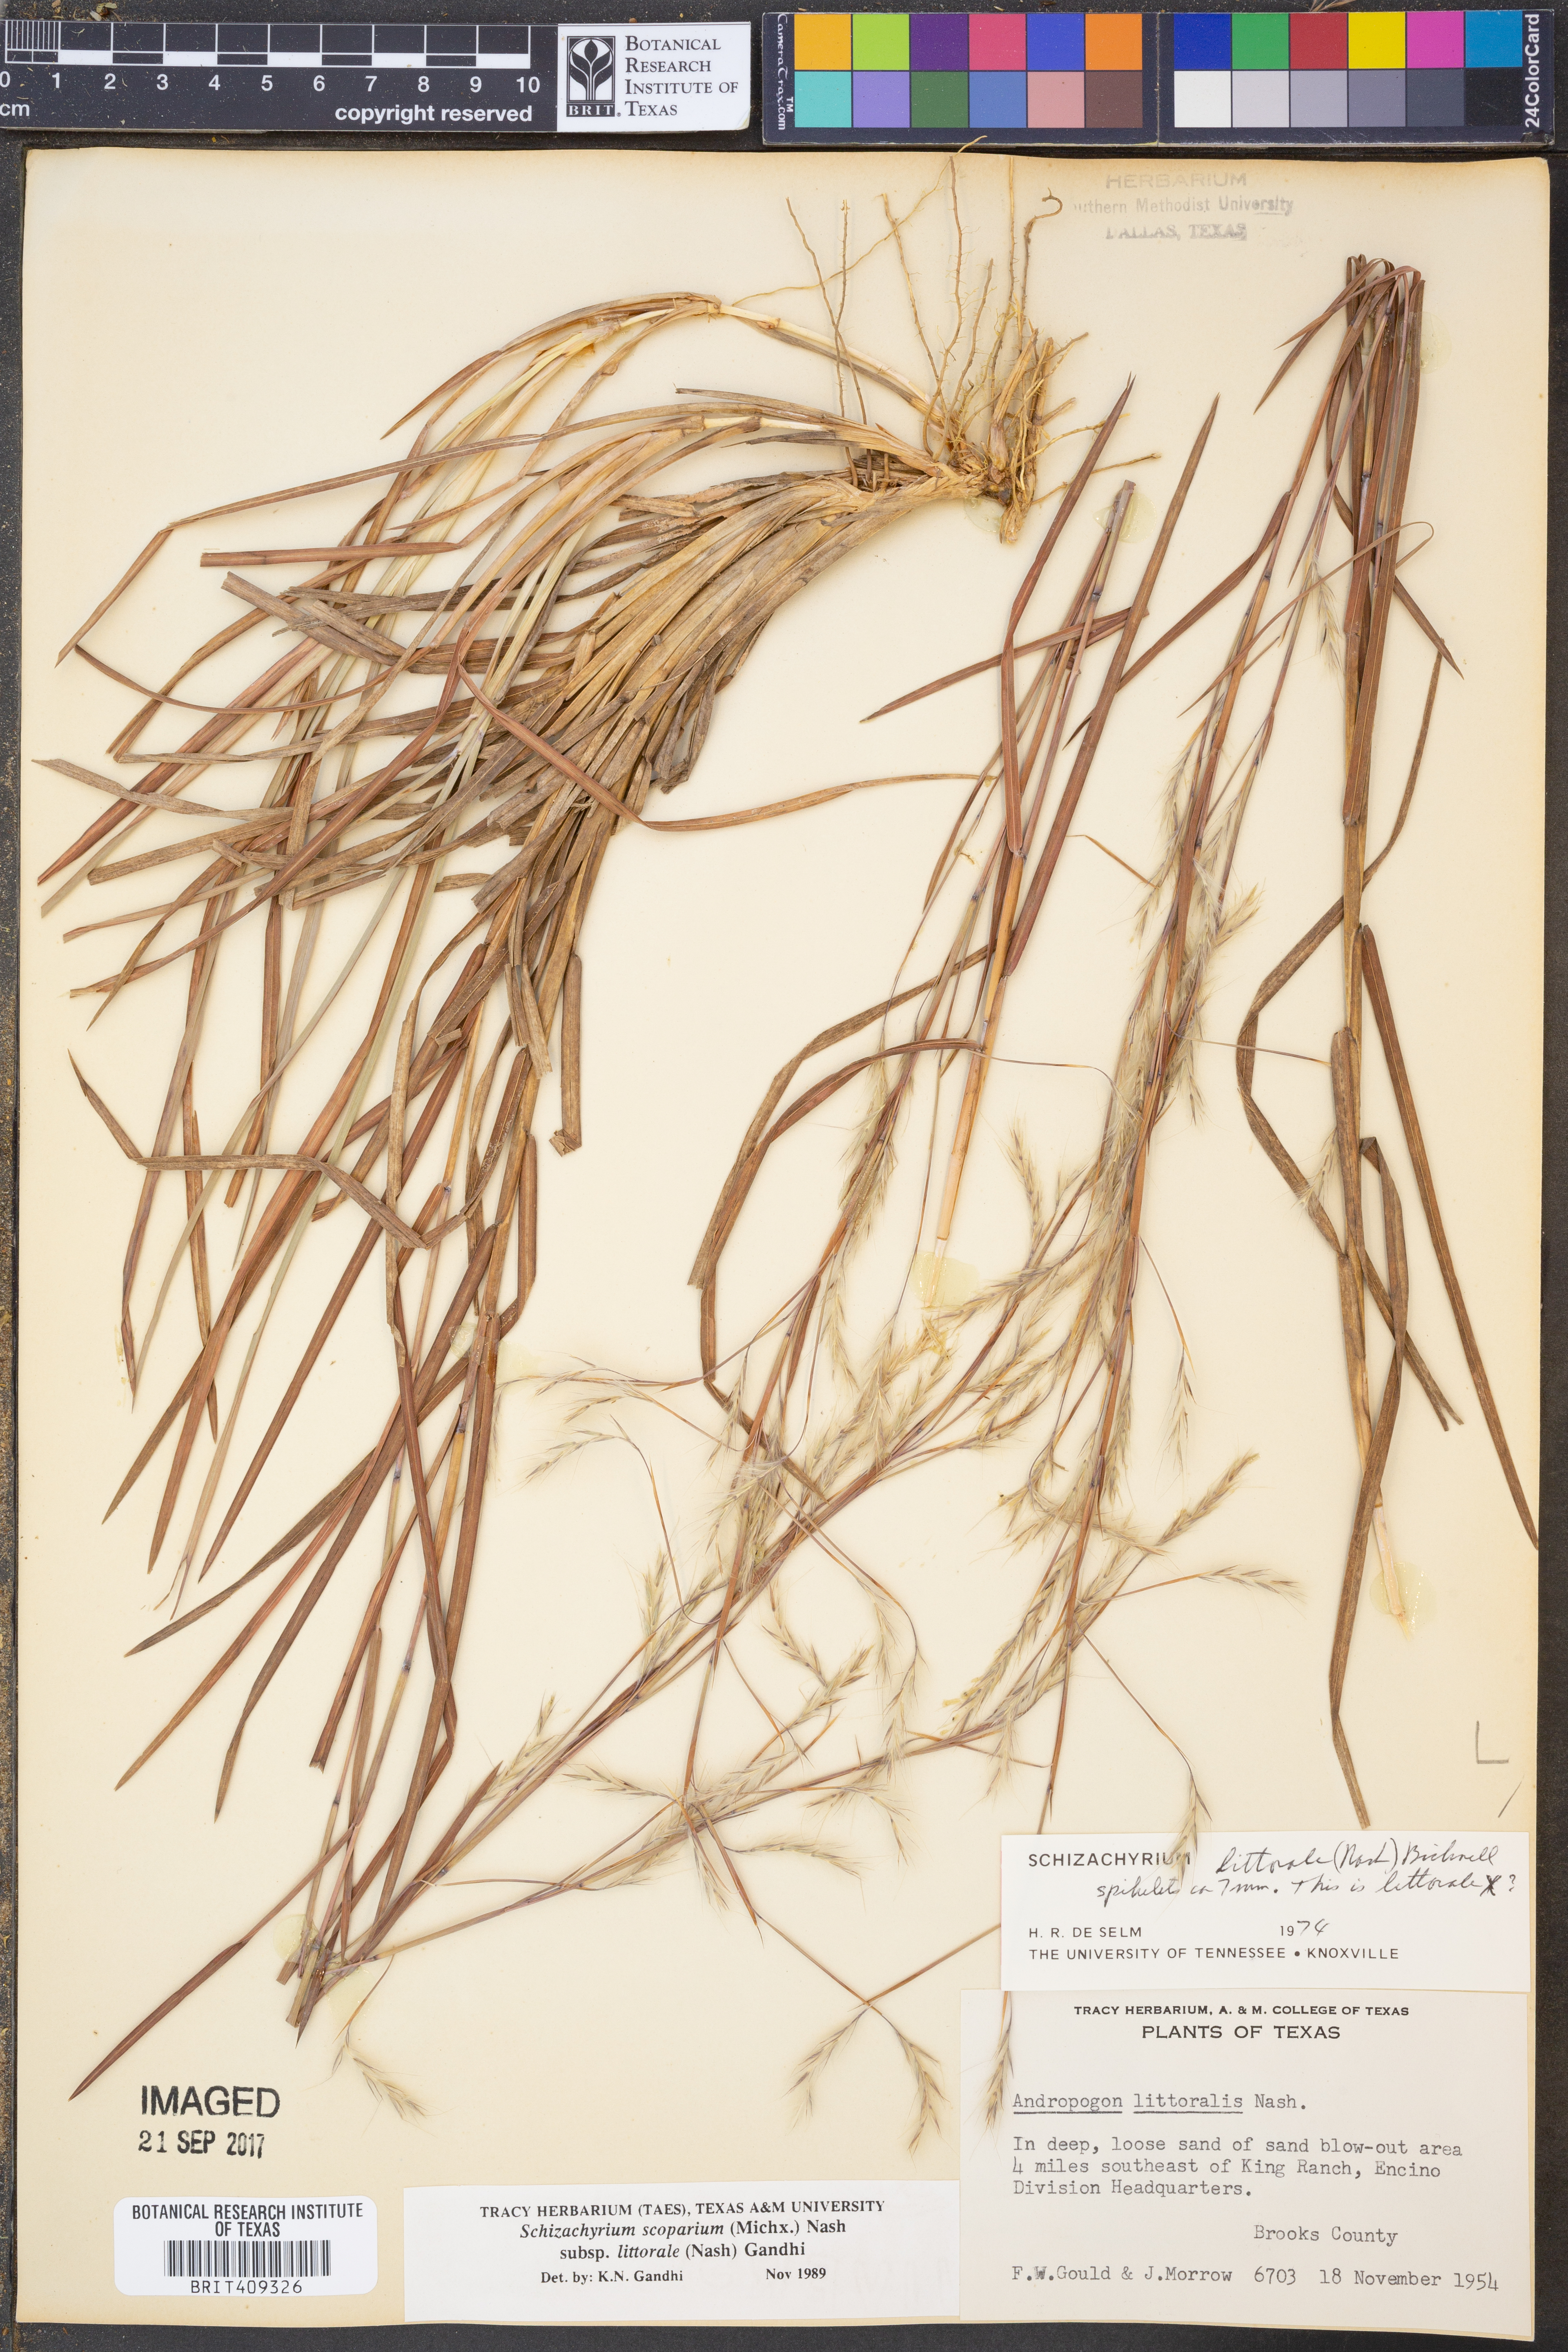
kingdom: Plantae
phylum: Tracheophyta
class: Liliopsida
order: Poales
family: Poaceae
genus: Schizachyrium
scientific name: Schizachyrium scoparium
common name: Little bluestem
